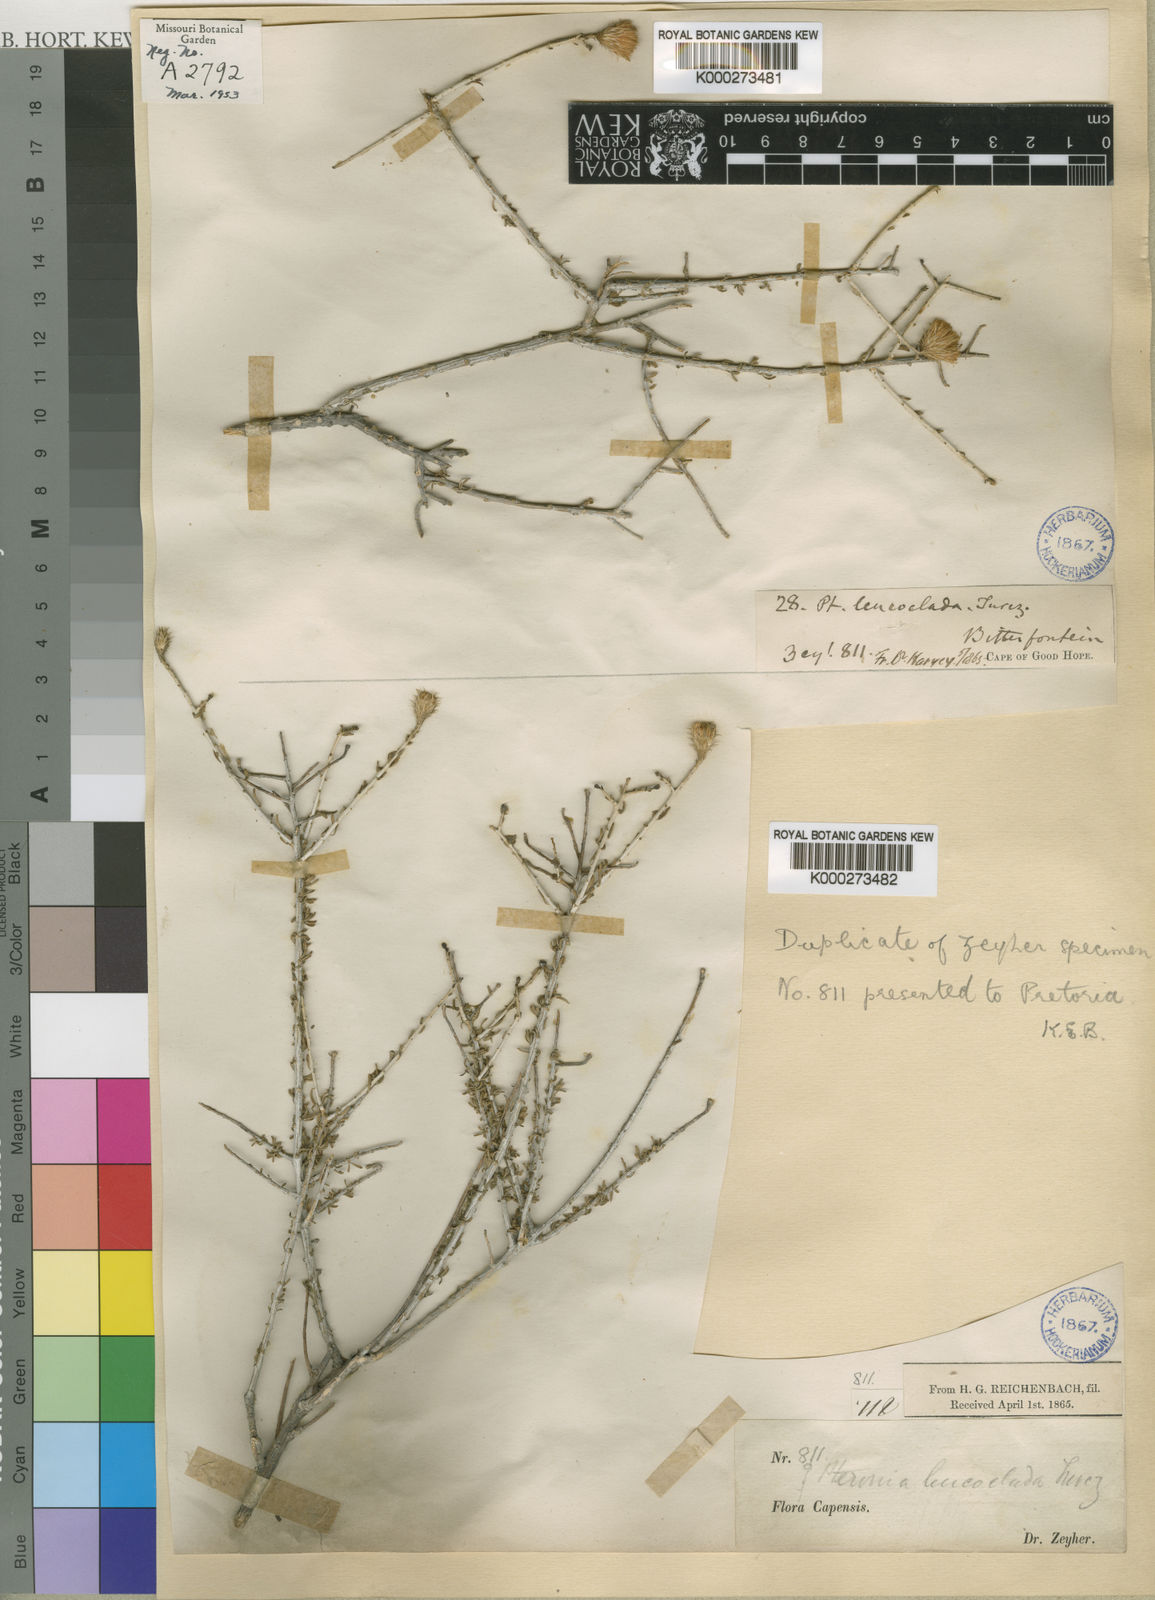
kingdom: Plantae
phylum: Tracheophyta
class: Magnoliopsida
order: Asterales
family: Asteraceae
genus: Pteronia
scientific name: Pteronia leucoclada
